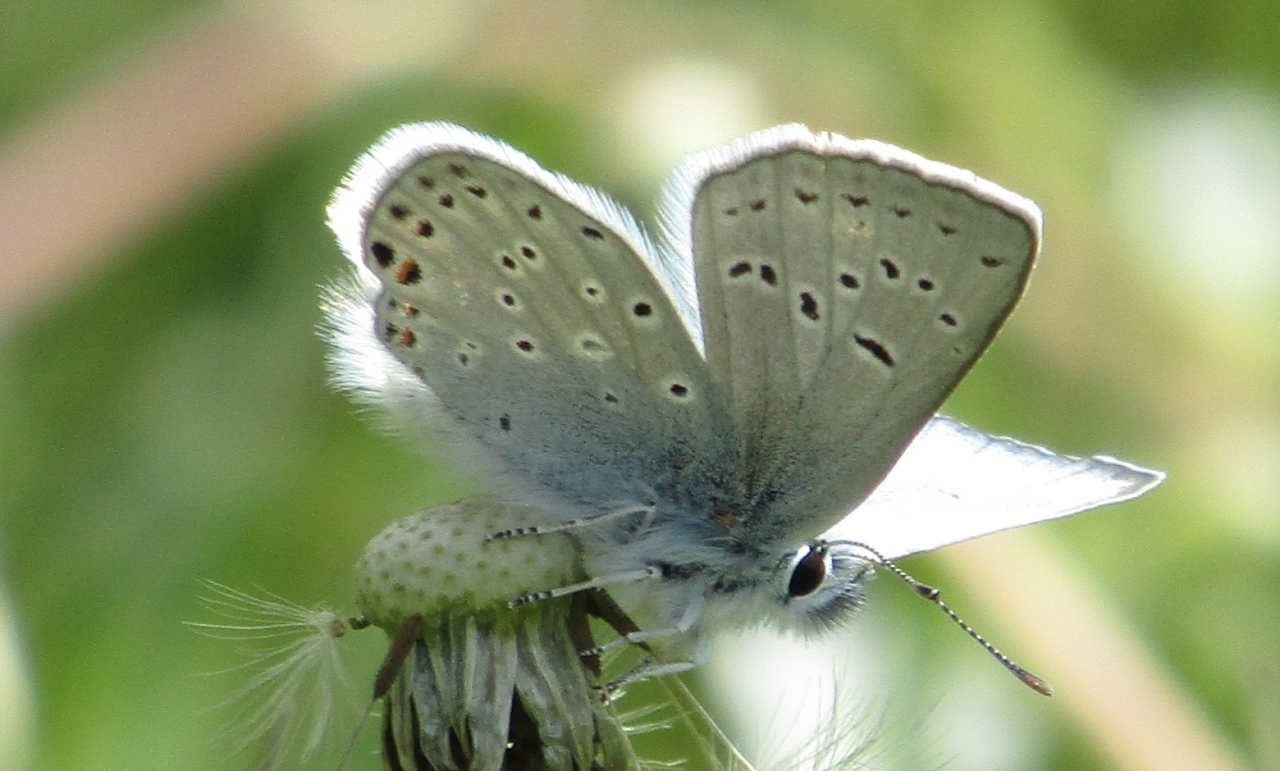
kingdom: Animalia
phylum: Arthropoda
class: Insecta
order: Lepidoptera
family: Lycaenidae
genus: Plebejus
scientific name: Plebejus saepiolus
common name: Greenish Blue
